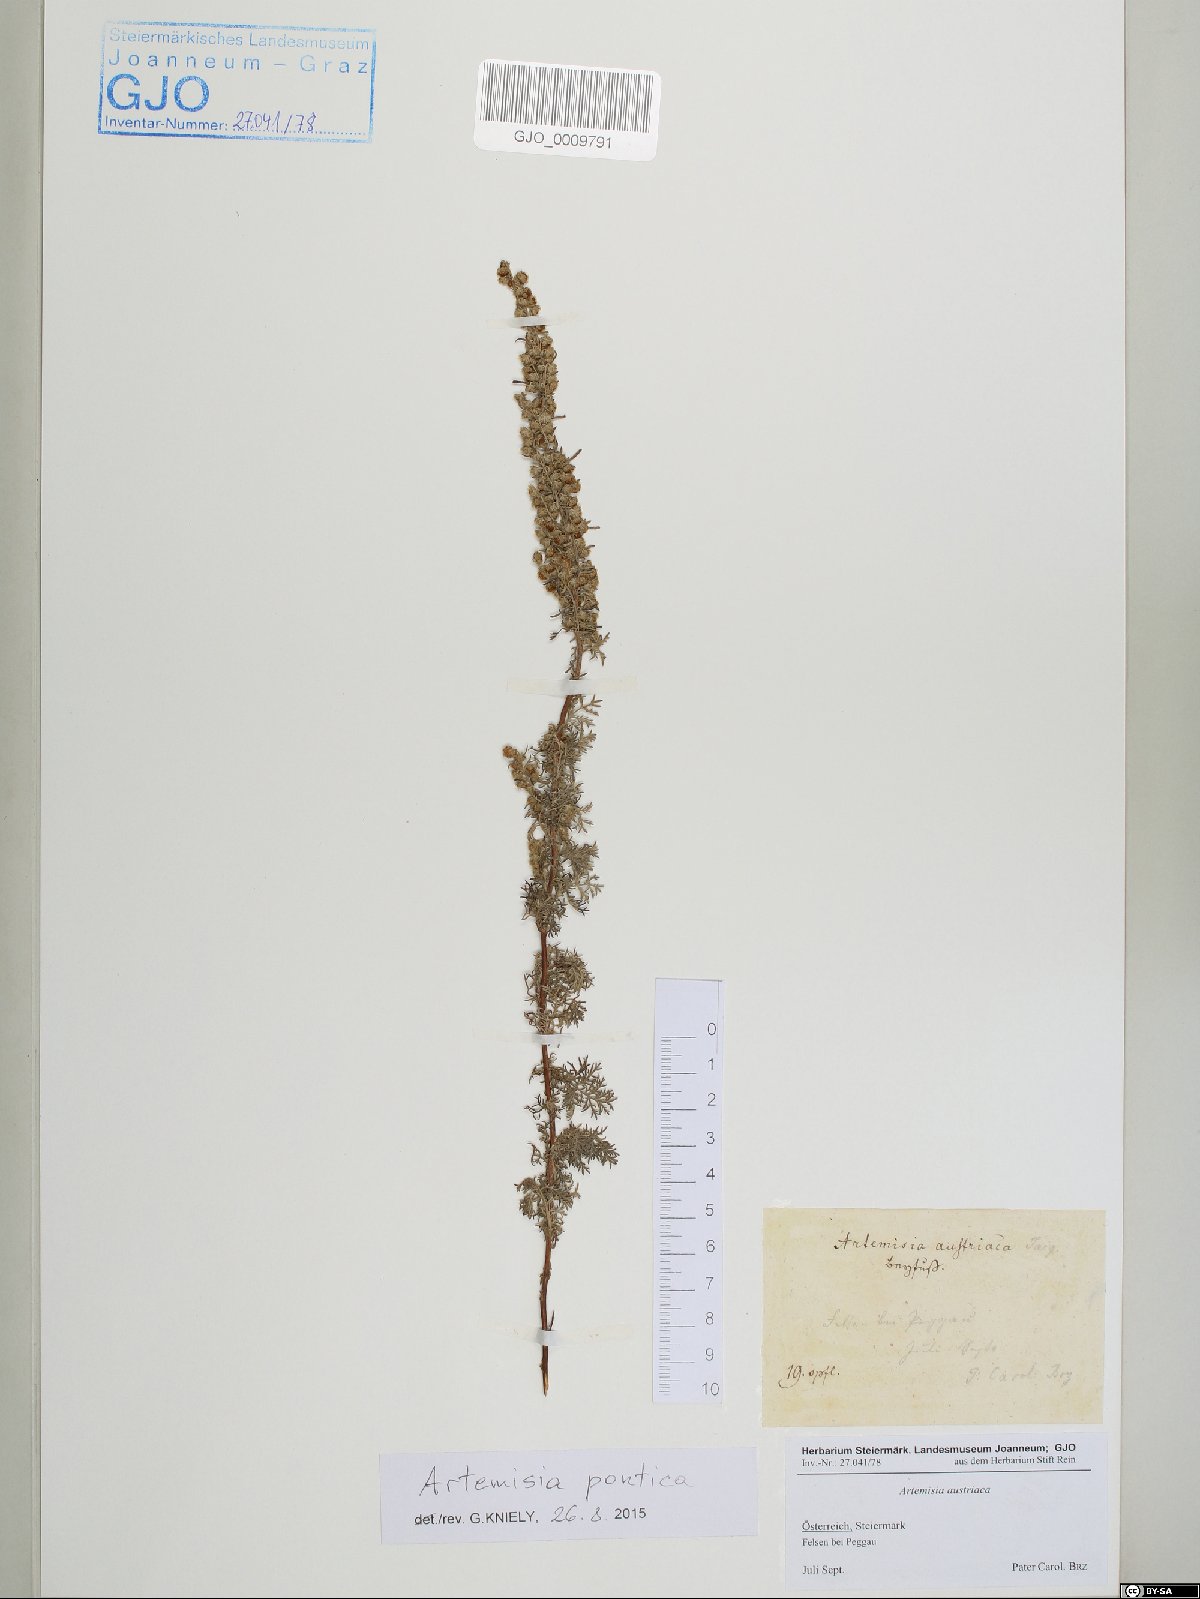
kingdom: Plantae
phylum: Tracheophyta
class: Magnoliopsida
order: Asterales
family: Asteraceae
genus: Artemisia
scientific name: Artemisia pontica
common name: Roman wormwood
